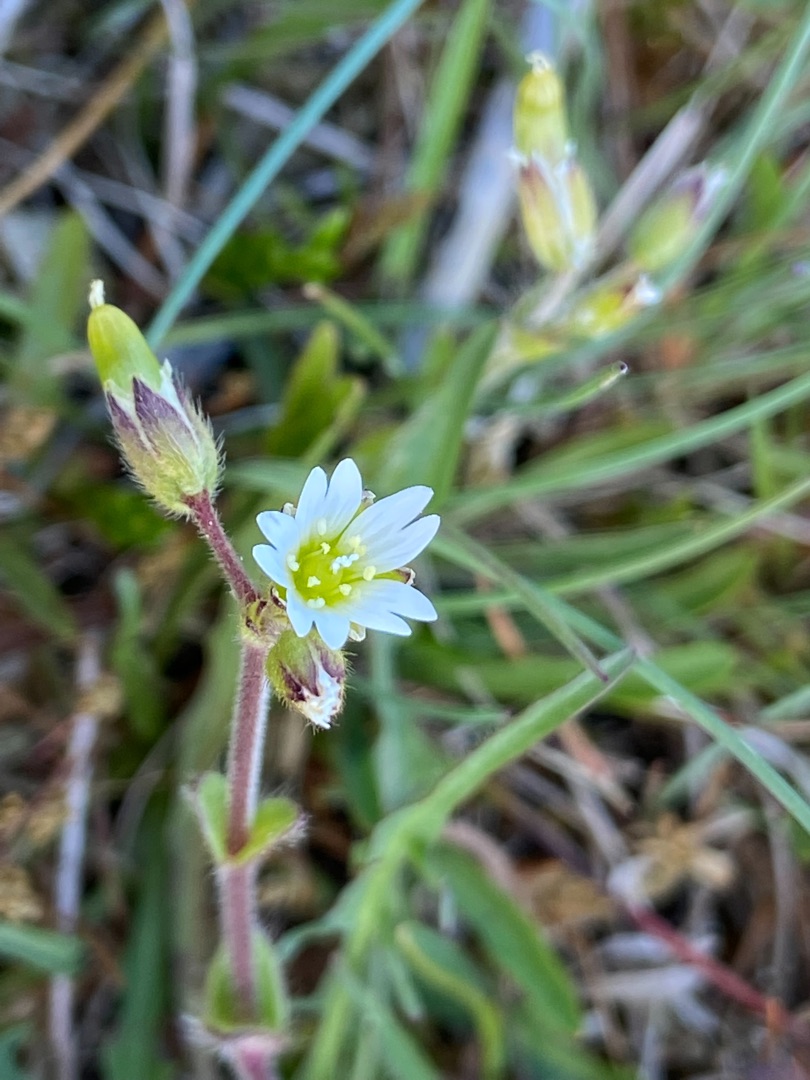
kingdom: Plantae
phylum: Tracheophyta
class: Magnoliopsida
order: Caryophyllales
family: Caryophyllaceae
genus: Cerastium
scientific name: Cerastium fontanum
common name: Almindelig hønsetarm
